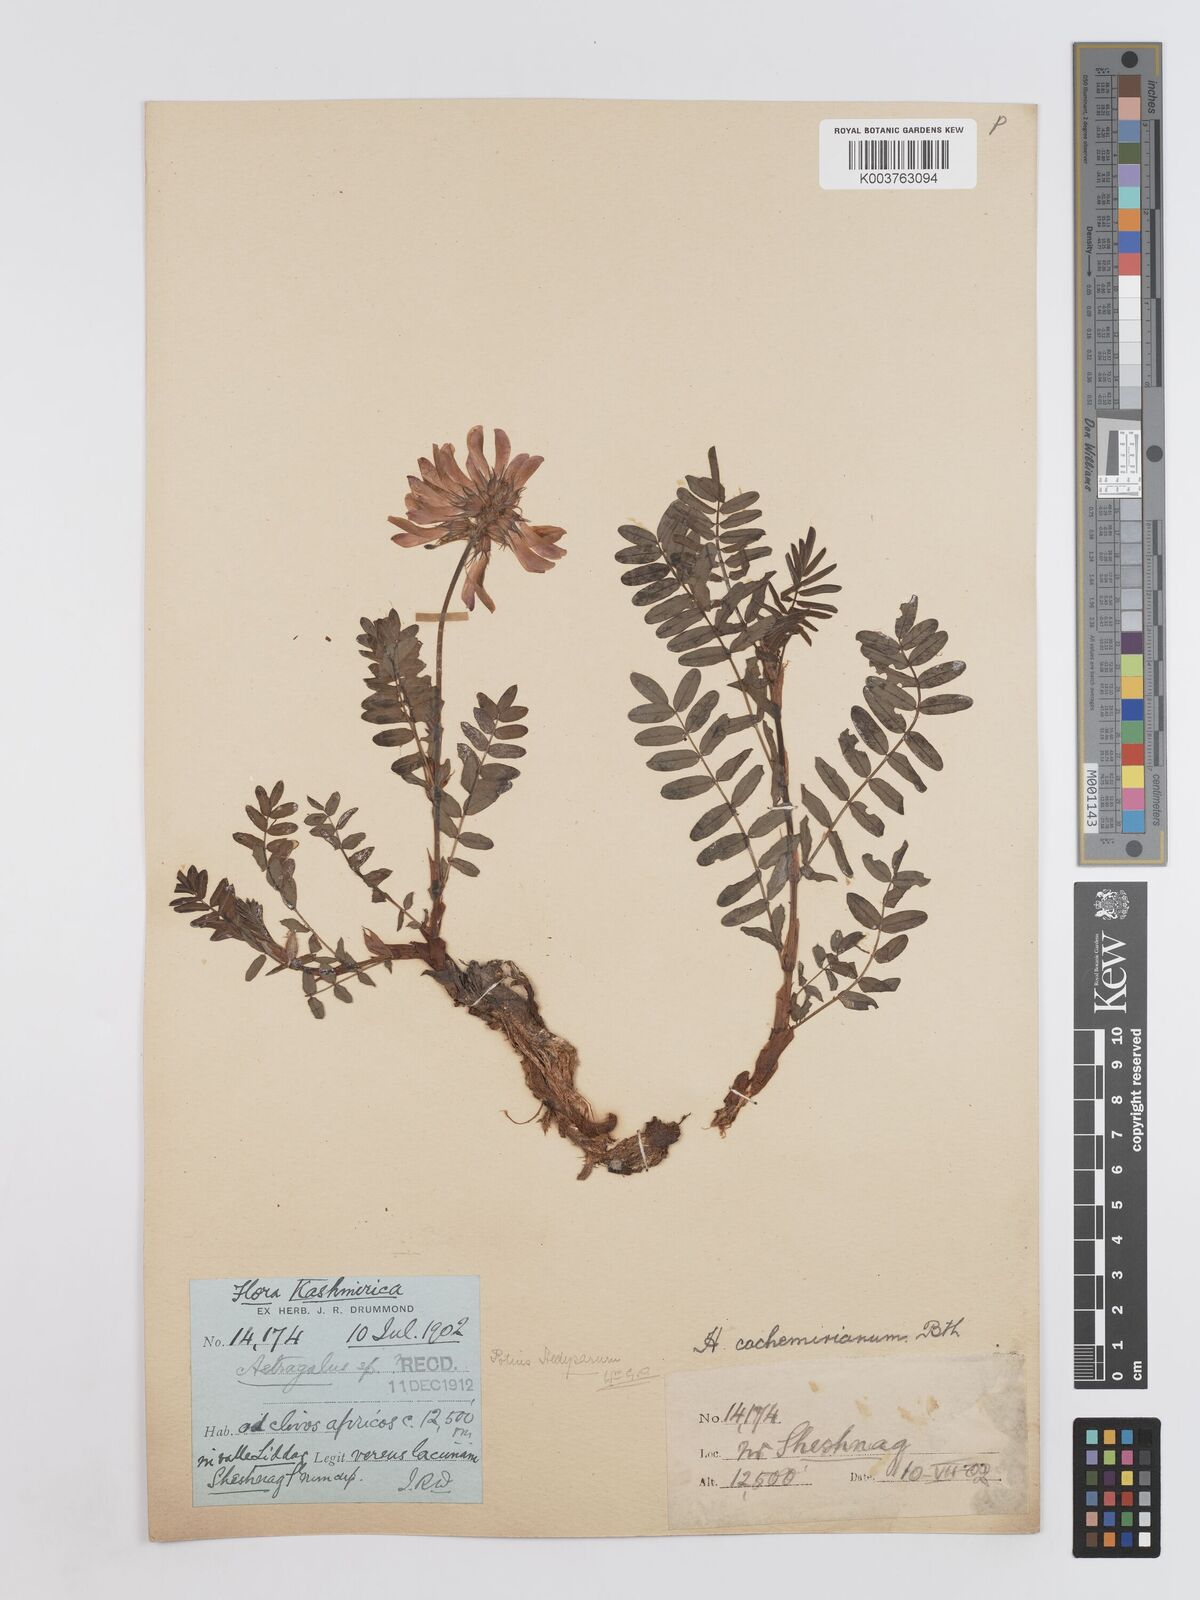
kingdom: Plantae
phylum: Tracheophyta
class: Magnoliopsida
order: Fabales
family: Fabaceae
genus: Hedysarum
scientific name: Hedysarum cachemirianum
